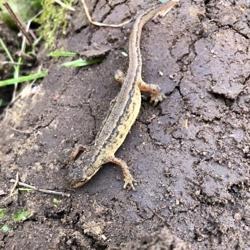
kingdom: Animalia
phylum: Chordata
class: Amphibia
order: Caudata
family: Salamandridae
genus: Lissotriton
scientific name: Lissotriton vulgaris
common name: Lille vandsalamander
